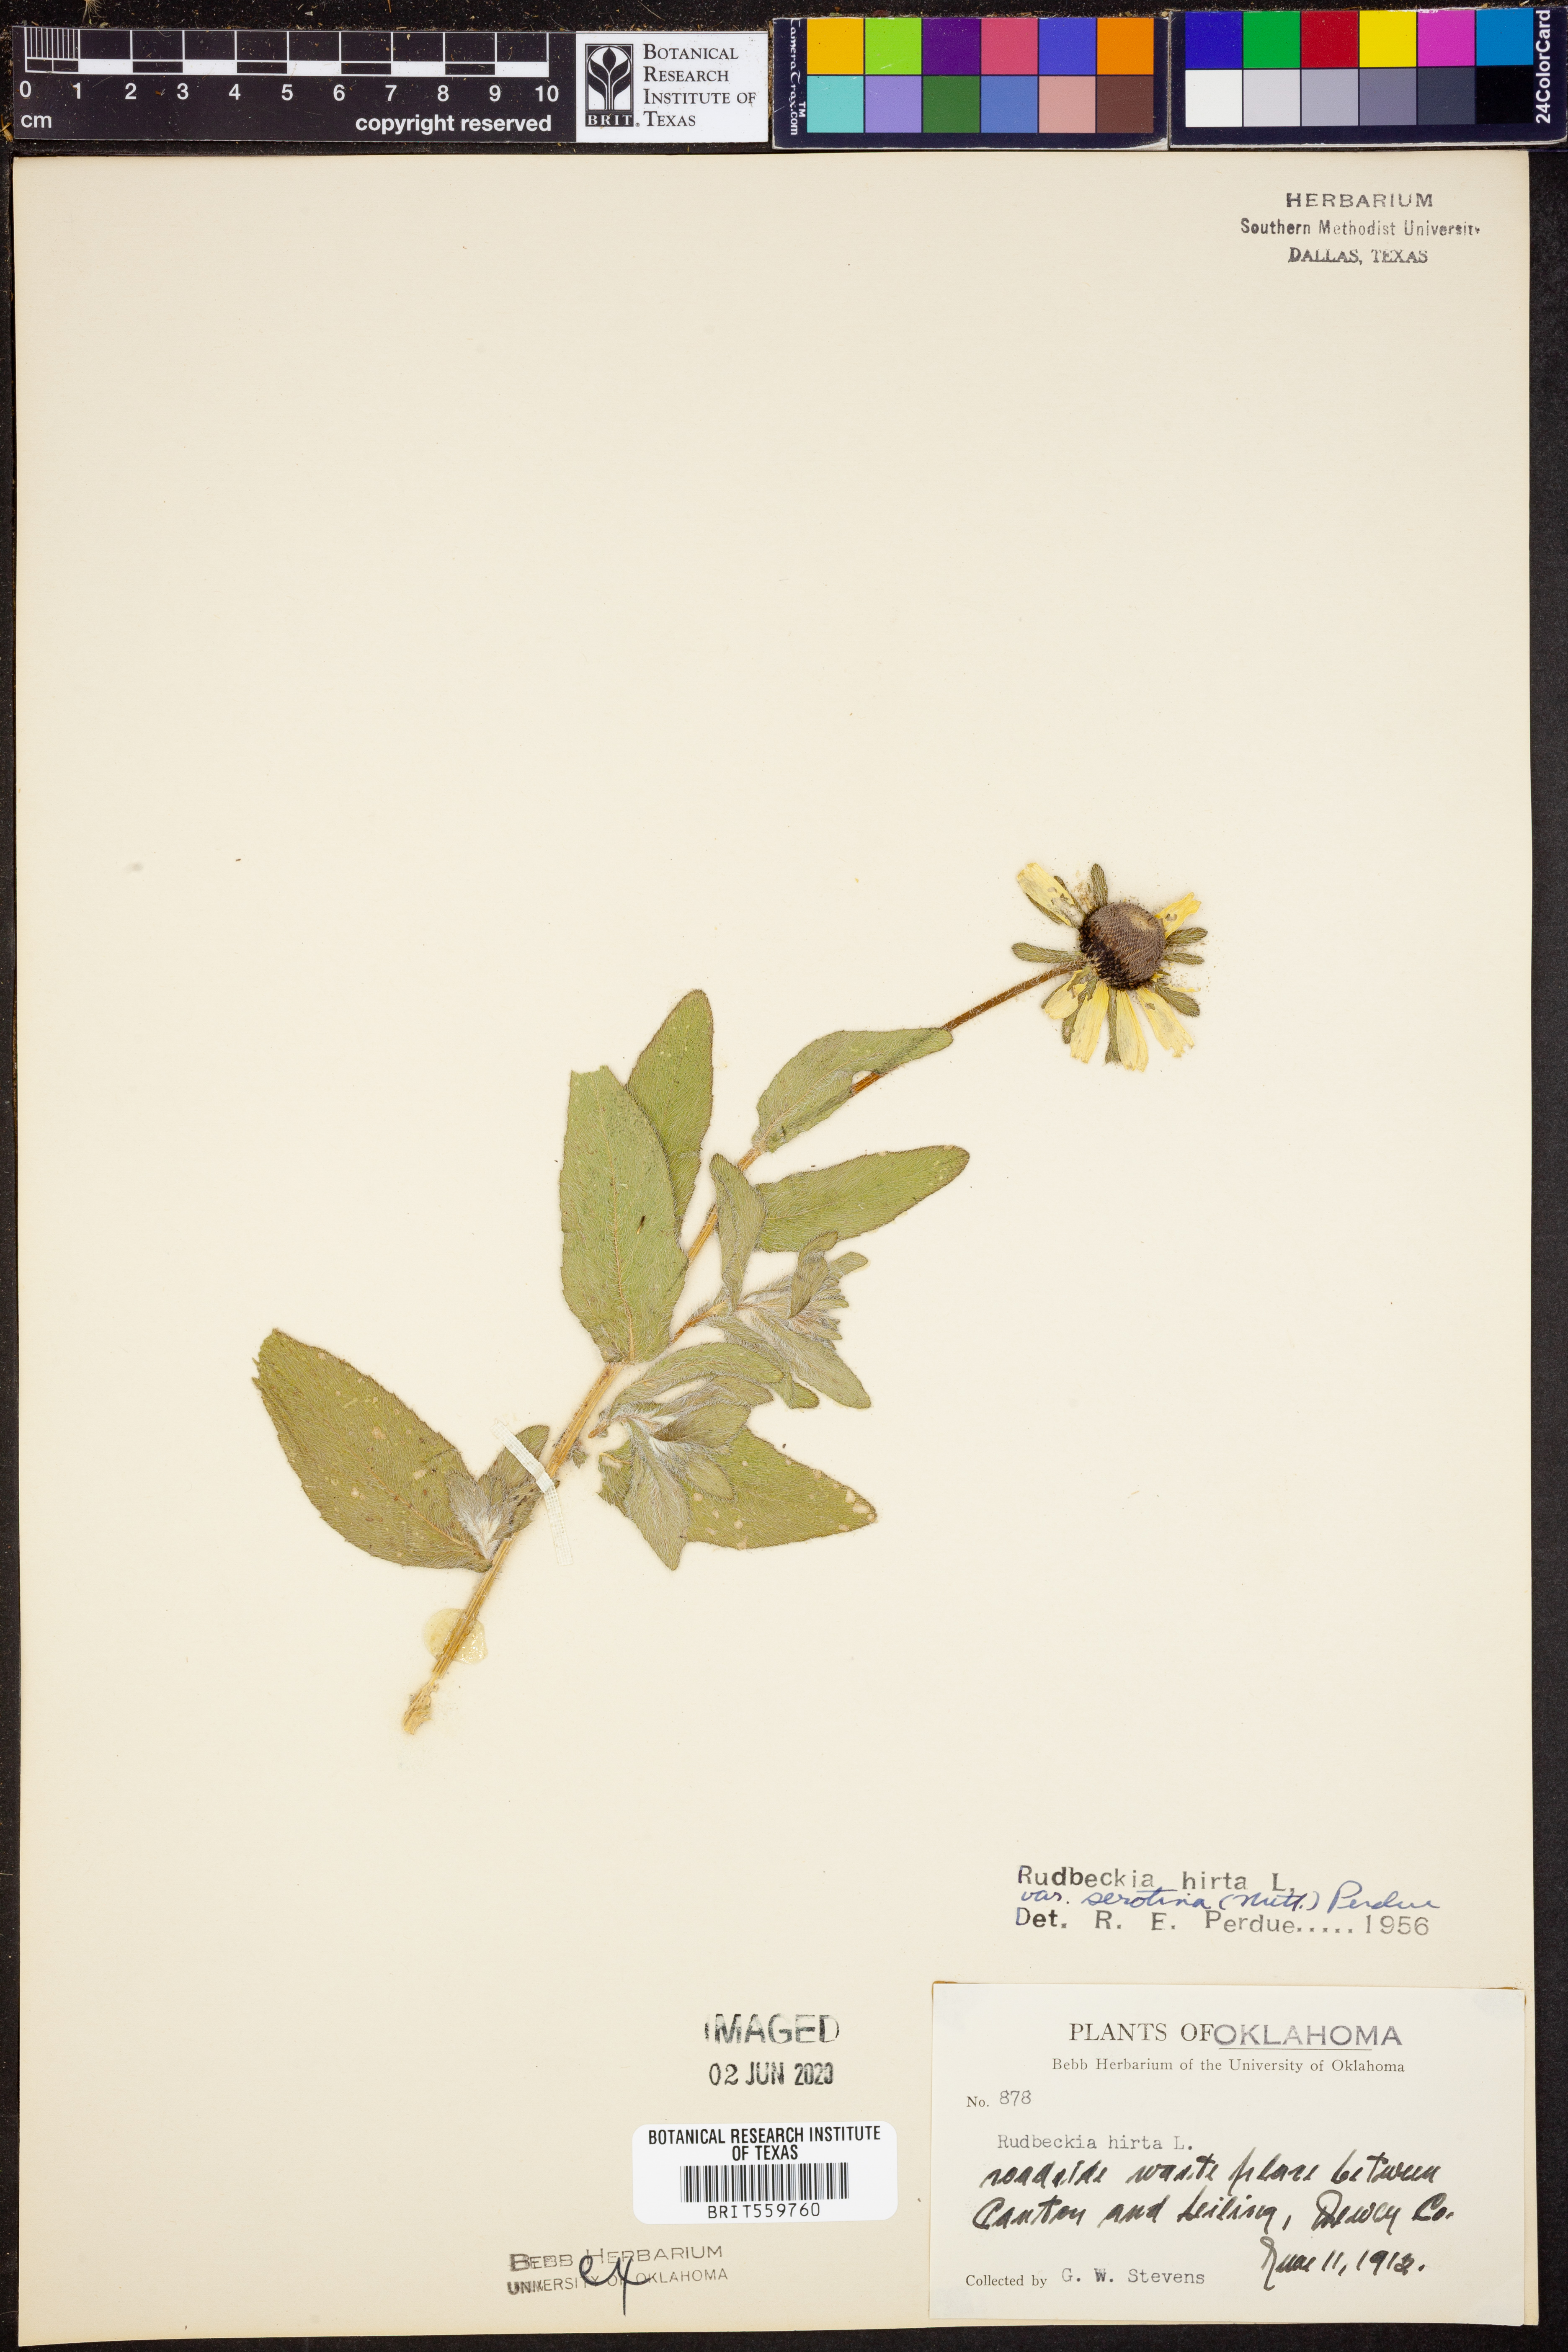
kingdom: Plantae
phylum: Tracheophyta
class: Magnoliopsida
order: Asterales
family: Asteraceae
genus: Rudbeckia
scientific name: Rudbeckia hirta
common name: Black-eyed-susan
